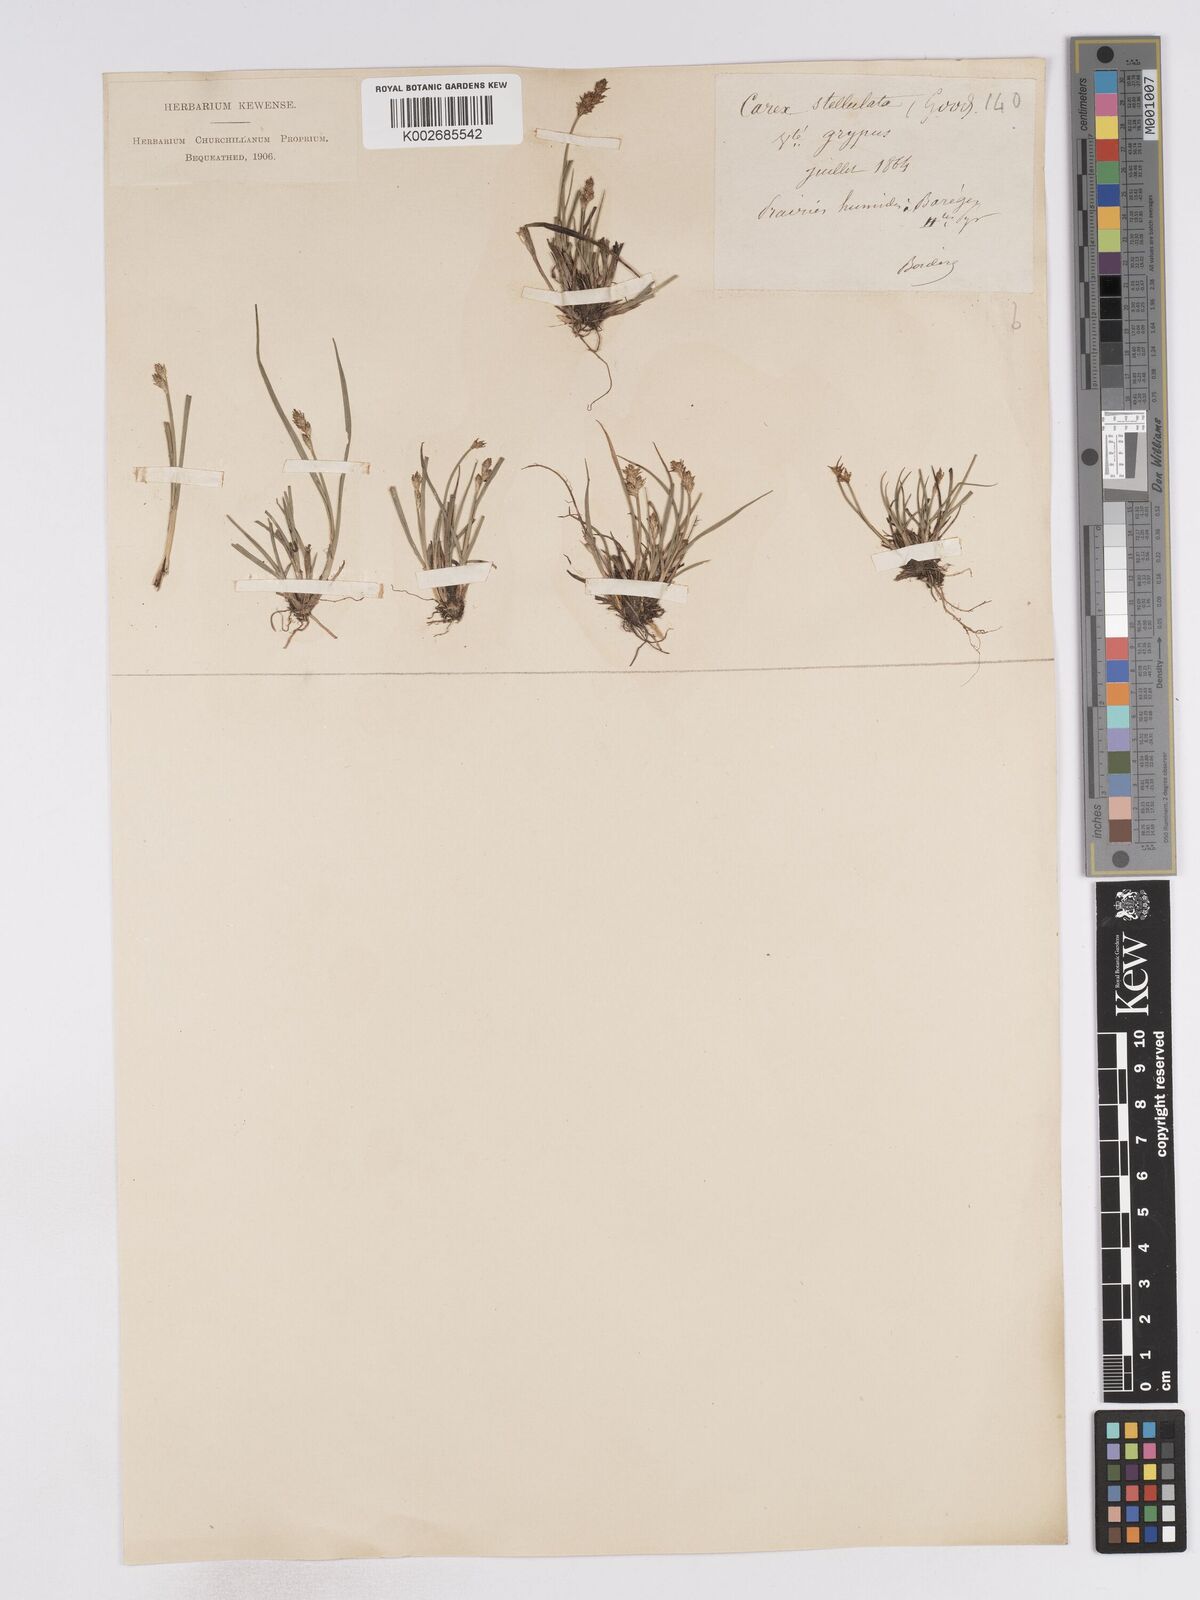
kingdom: Plantae
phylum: Tracheophyta
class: Liliopsida
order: Poales
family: Cyperaceae
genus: Carex
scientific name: Carex echinata
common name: Star sedge
